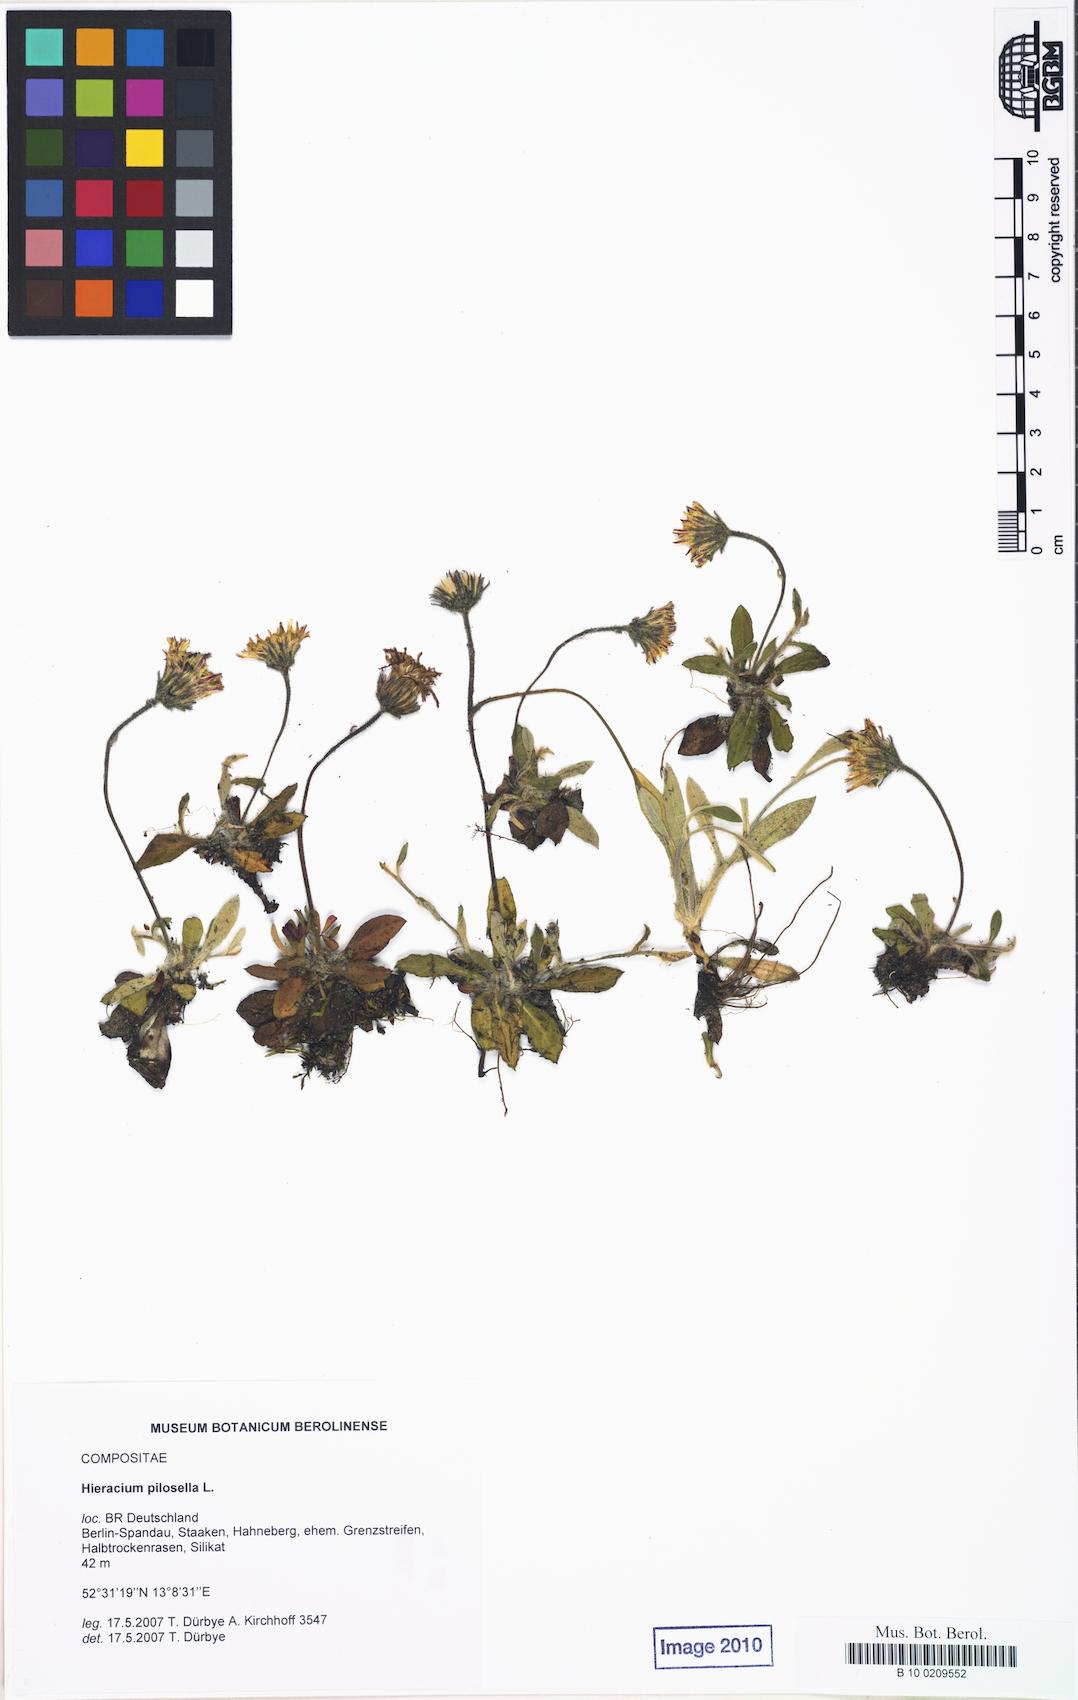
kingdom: Plantae
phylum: Tracheophyta
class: Magnoliopsida
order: Asterales
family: Asteraceae
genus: Pilosella
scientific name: Pilosella officinarum
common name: Mouse-ear hawkweed
